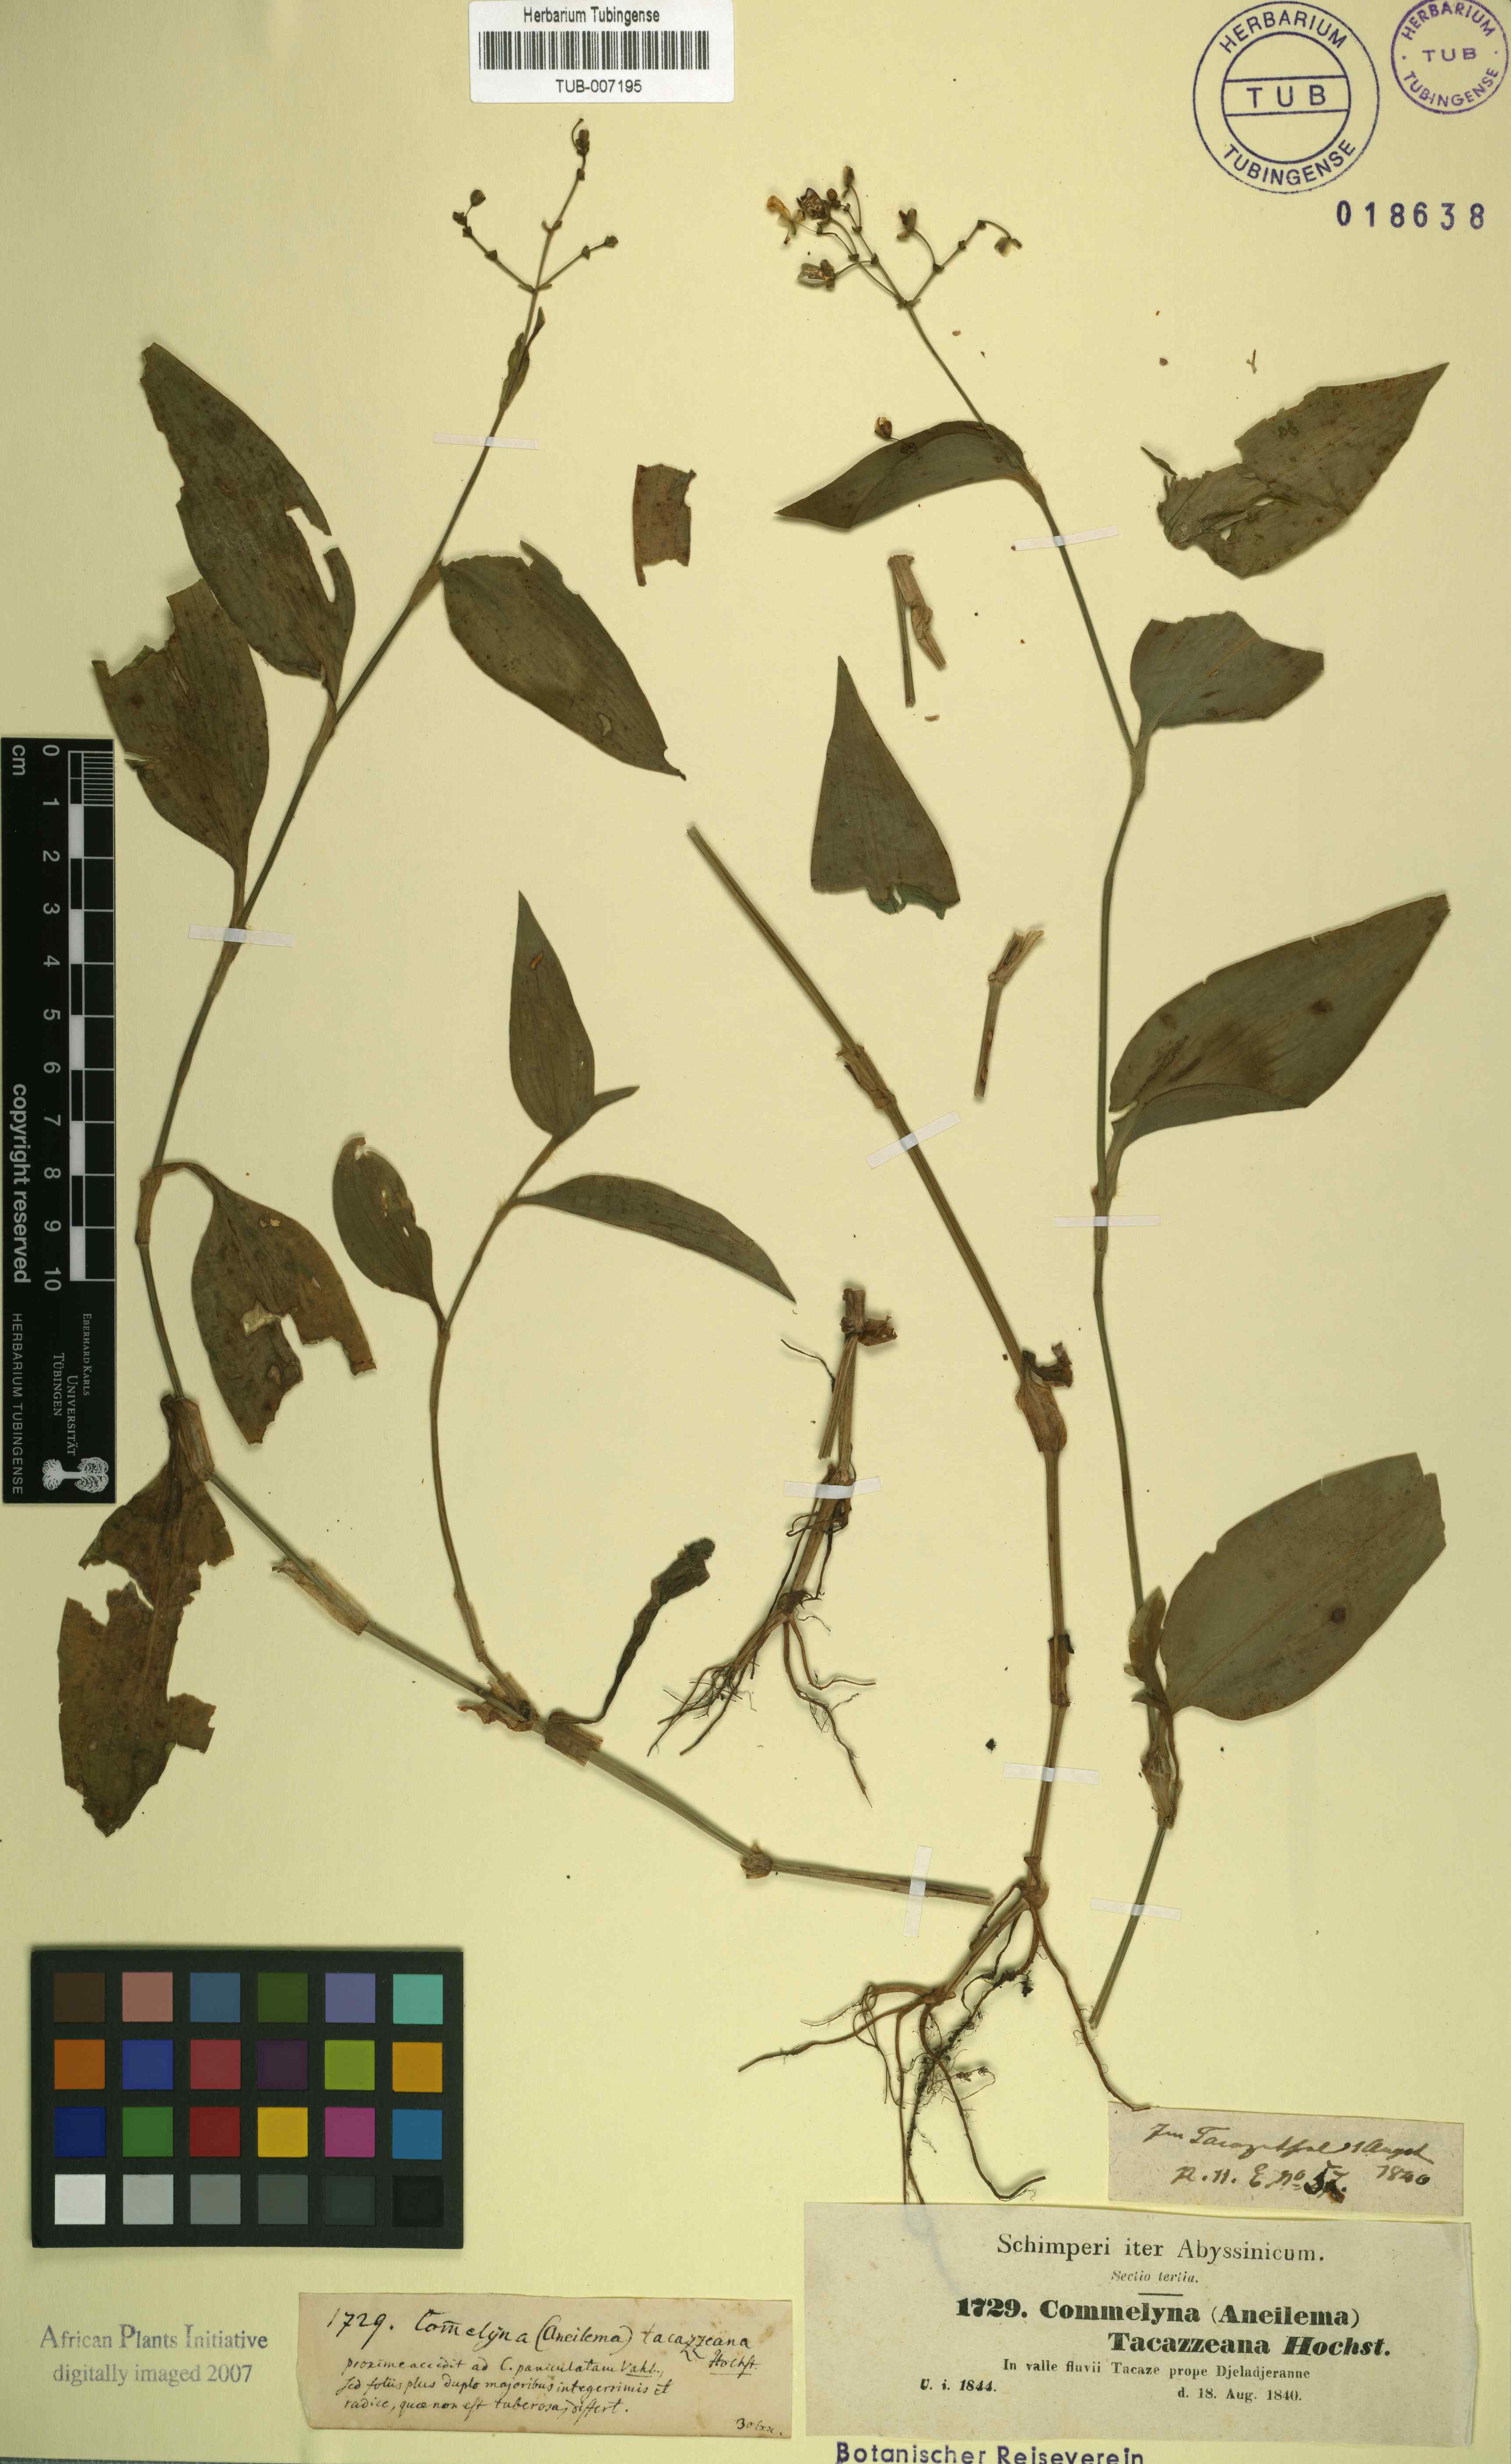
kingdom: Plantae
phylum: Tracheophyta
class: Liliopsida
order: Commelinales
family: Commelinaceae
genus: Commelina
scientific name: Commelina
